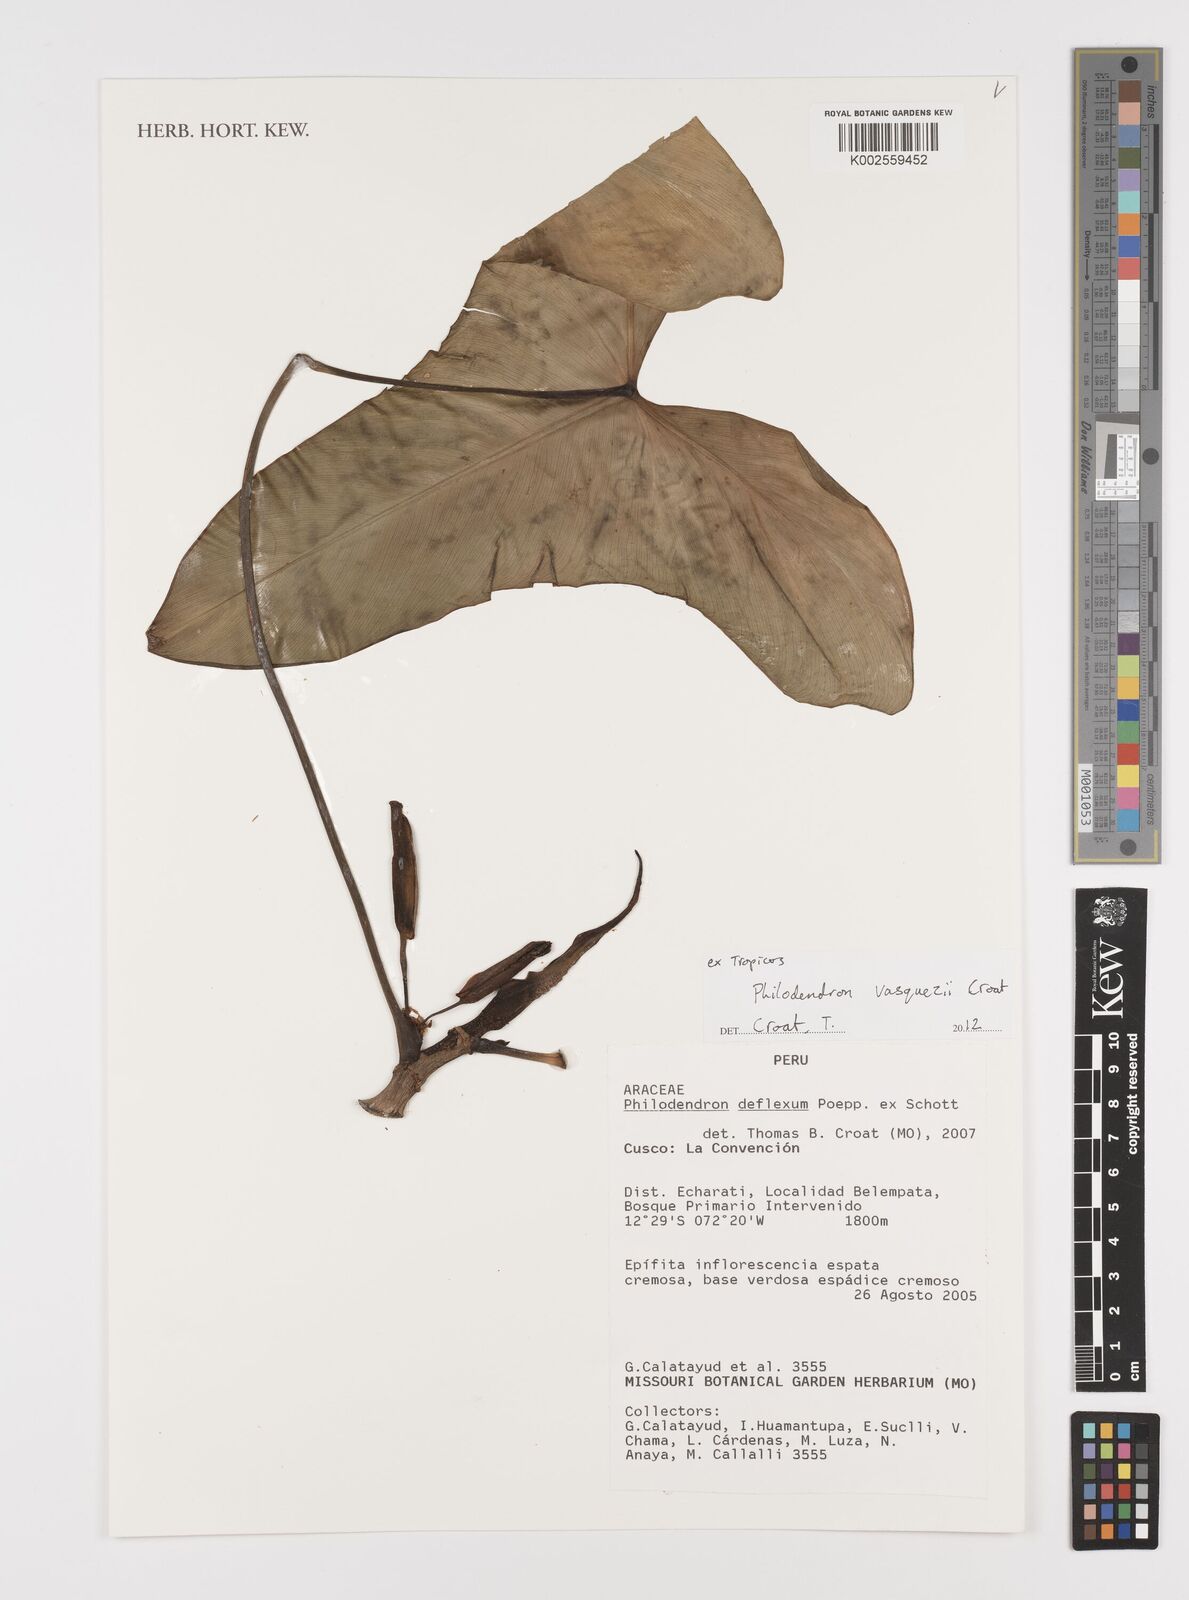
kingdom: Plantae
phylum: Tracheophyta
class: Liliopsida
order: Alismatales
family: Araceae
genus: Philodendron
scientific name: Philodendron
